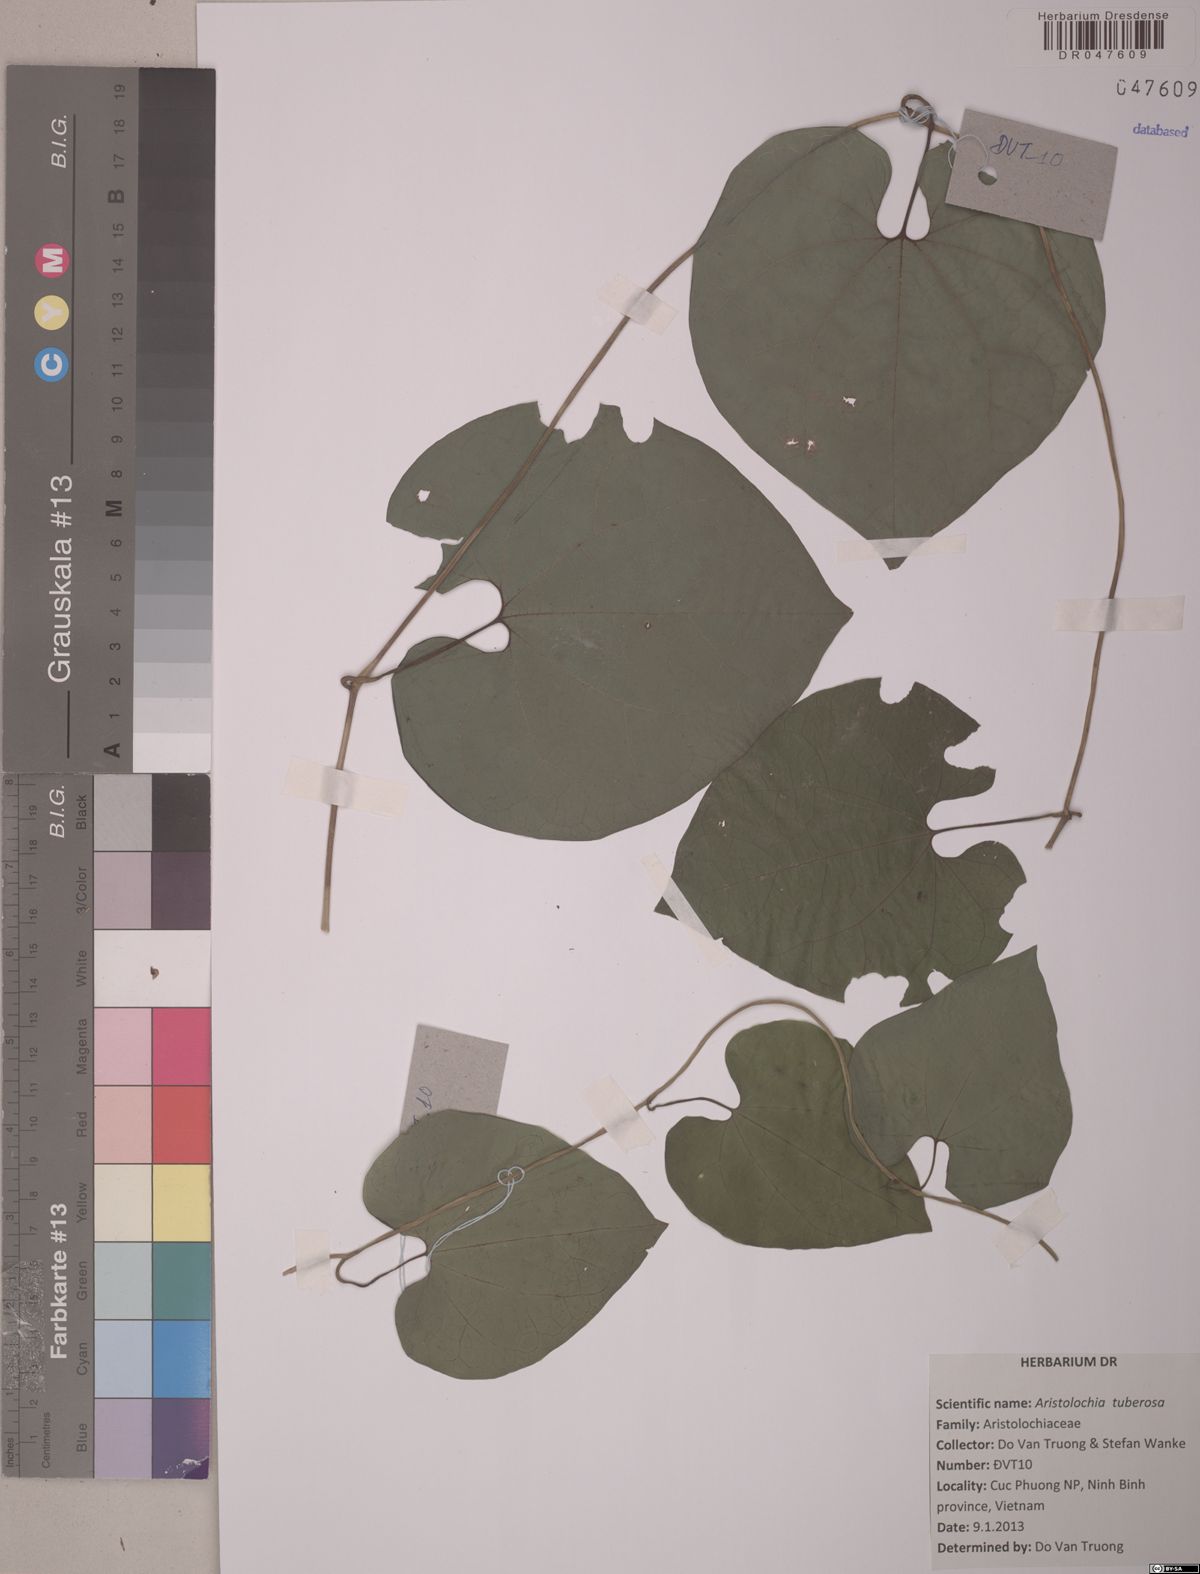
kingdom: Plantae
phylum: Tracheophyta
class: Magnoliopsida
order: Piperales
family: Aristolochiaceae
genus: Aristolochia
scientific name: Aristolochia tuberosa
